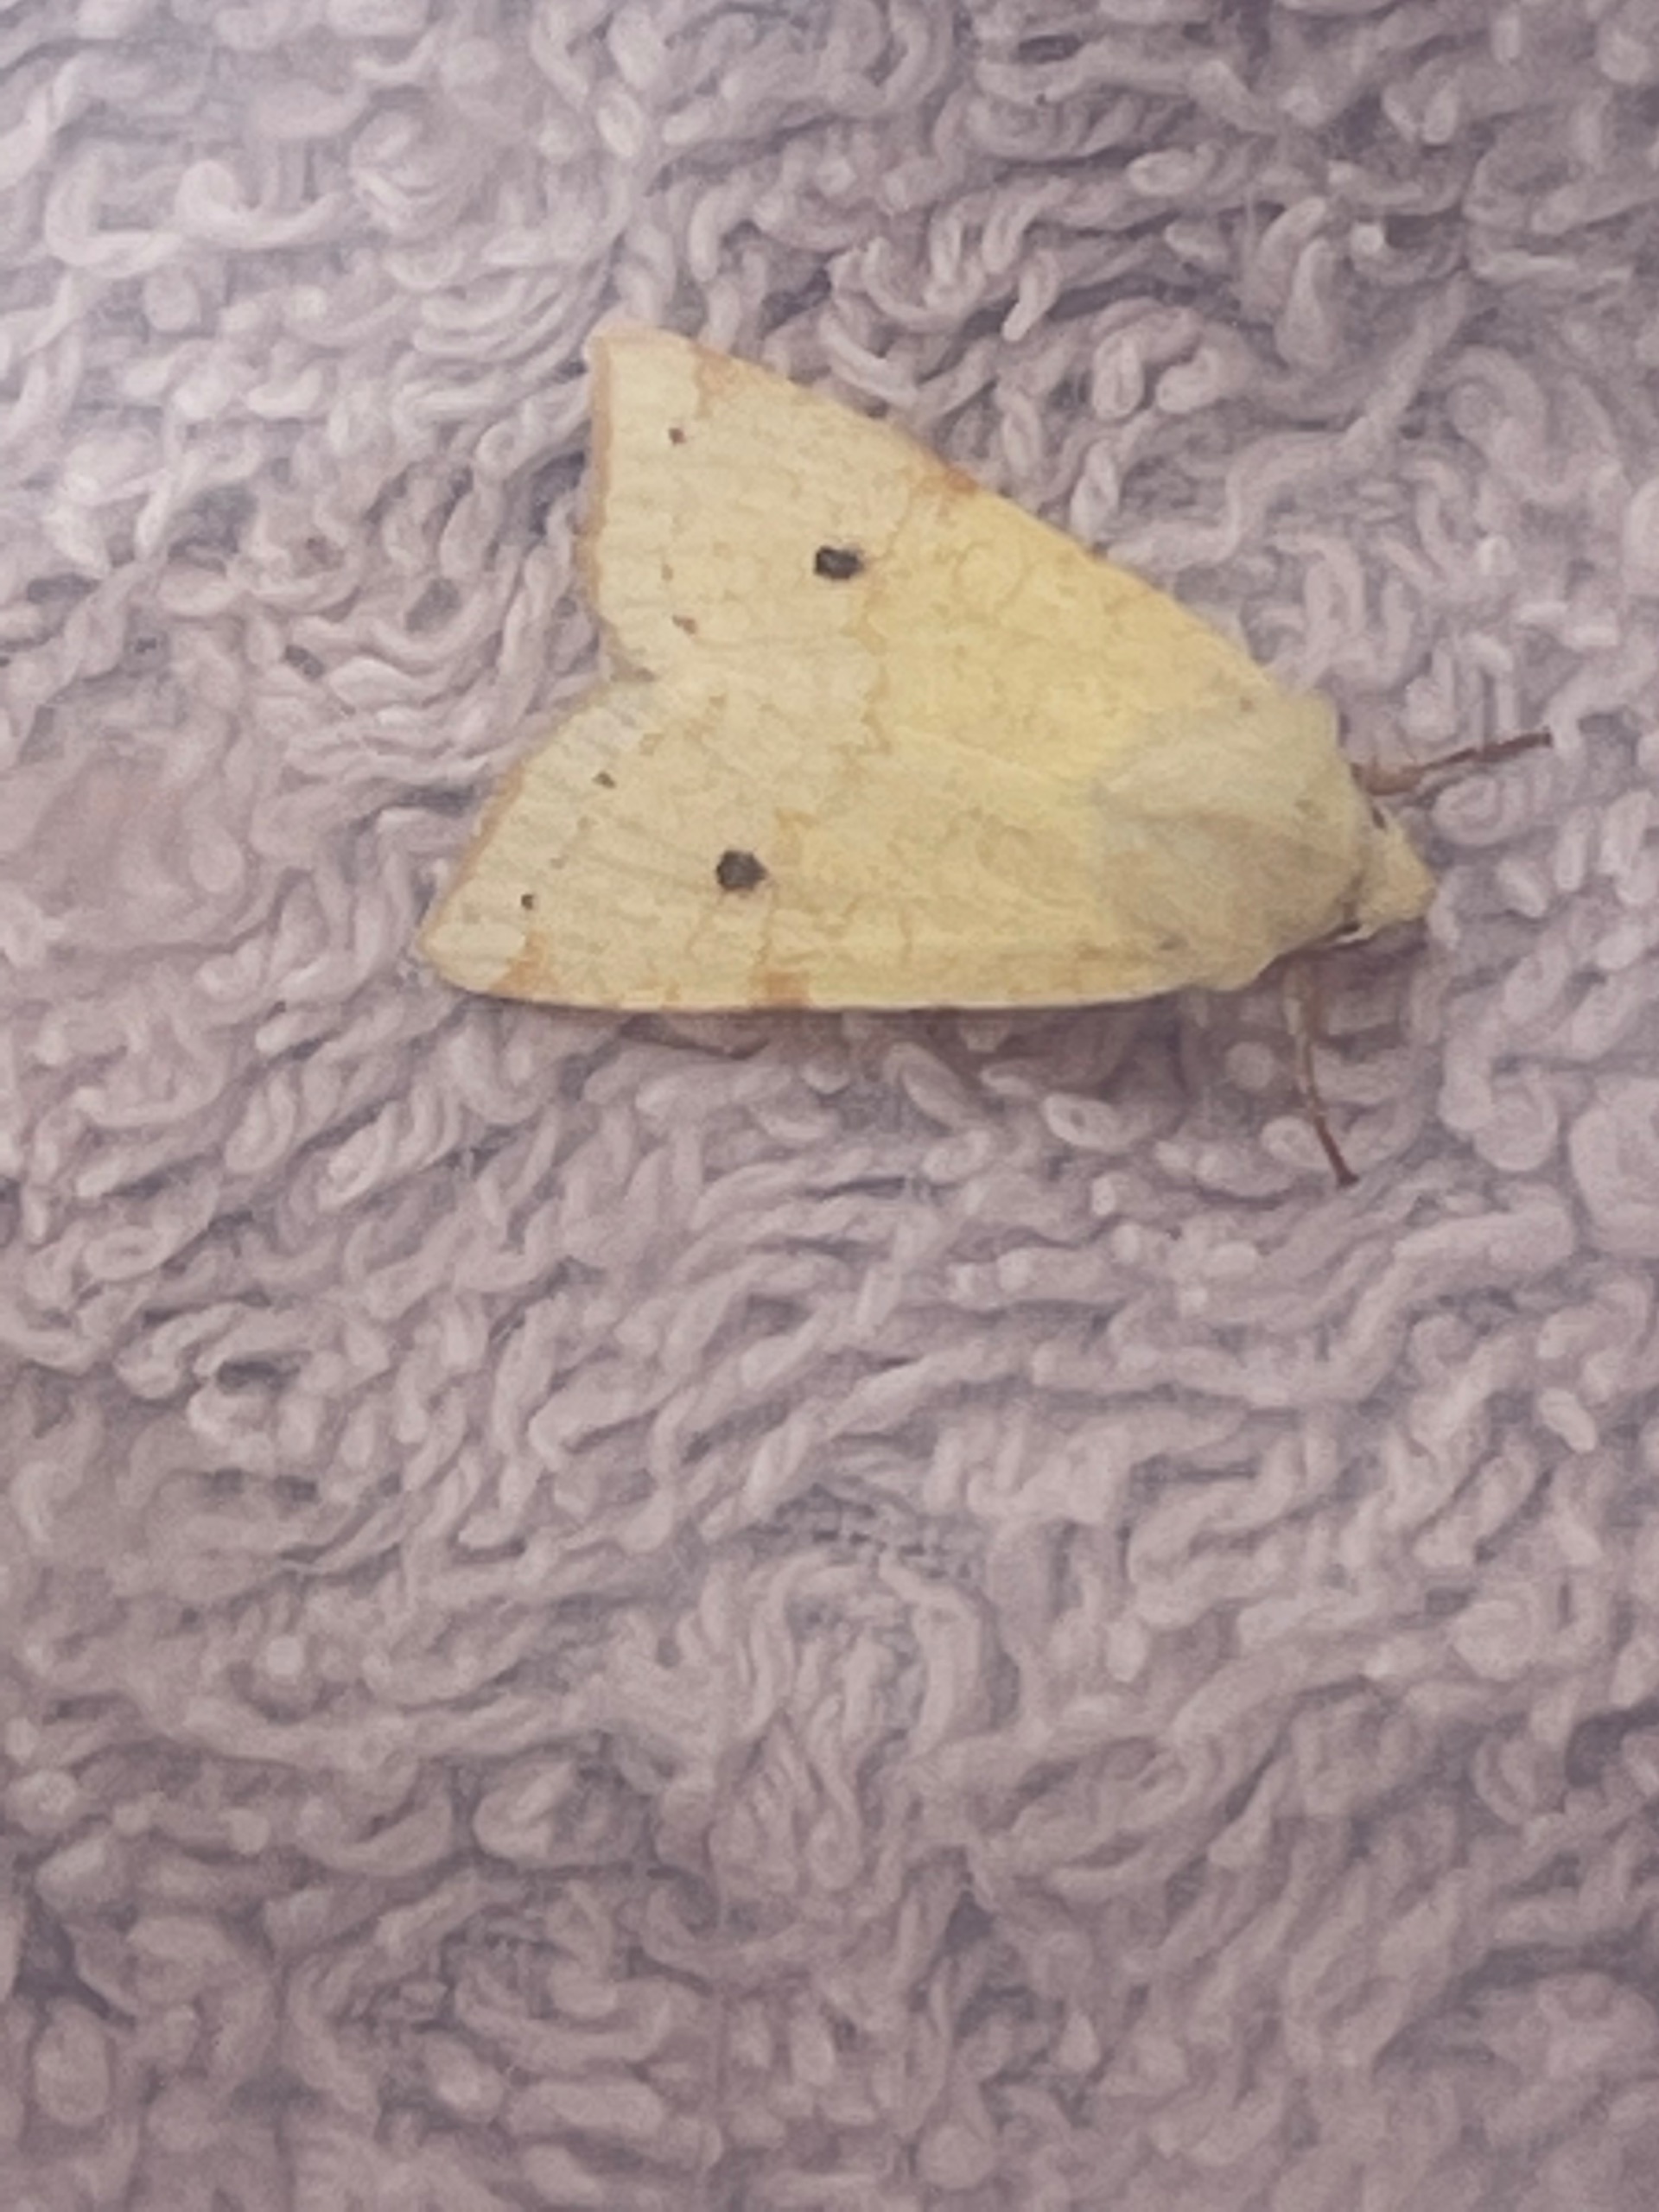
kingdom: Animalia
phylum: Arthropoda
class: Insecta
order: Lepidoptera
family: Noctuidae
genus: Xanthia
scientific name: Xanthia Cirrhia icteritia
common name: Brombær-guldugle
